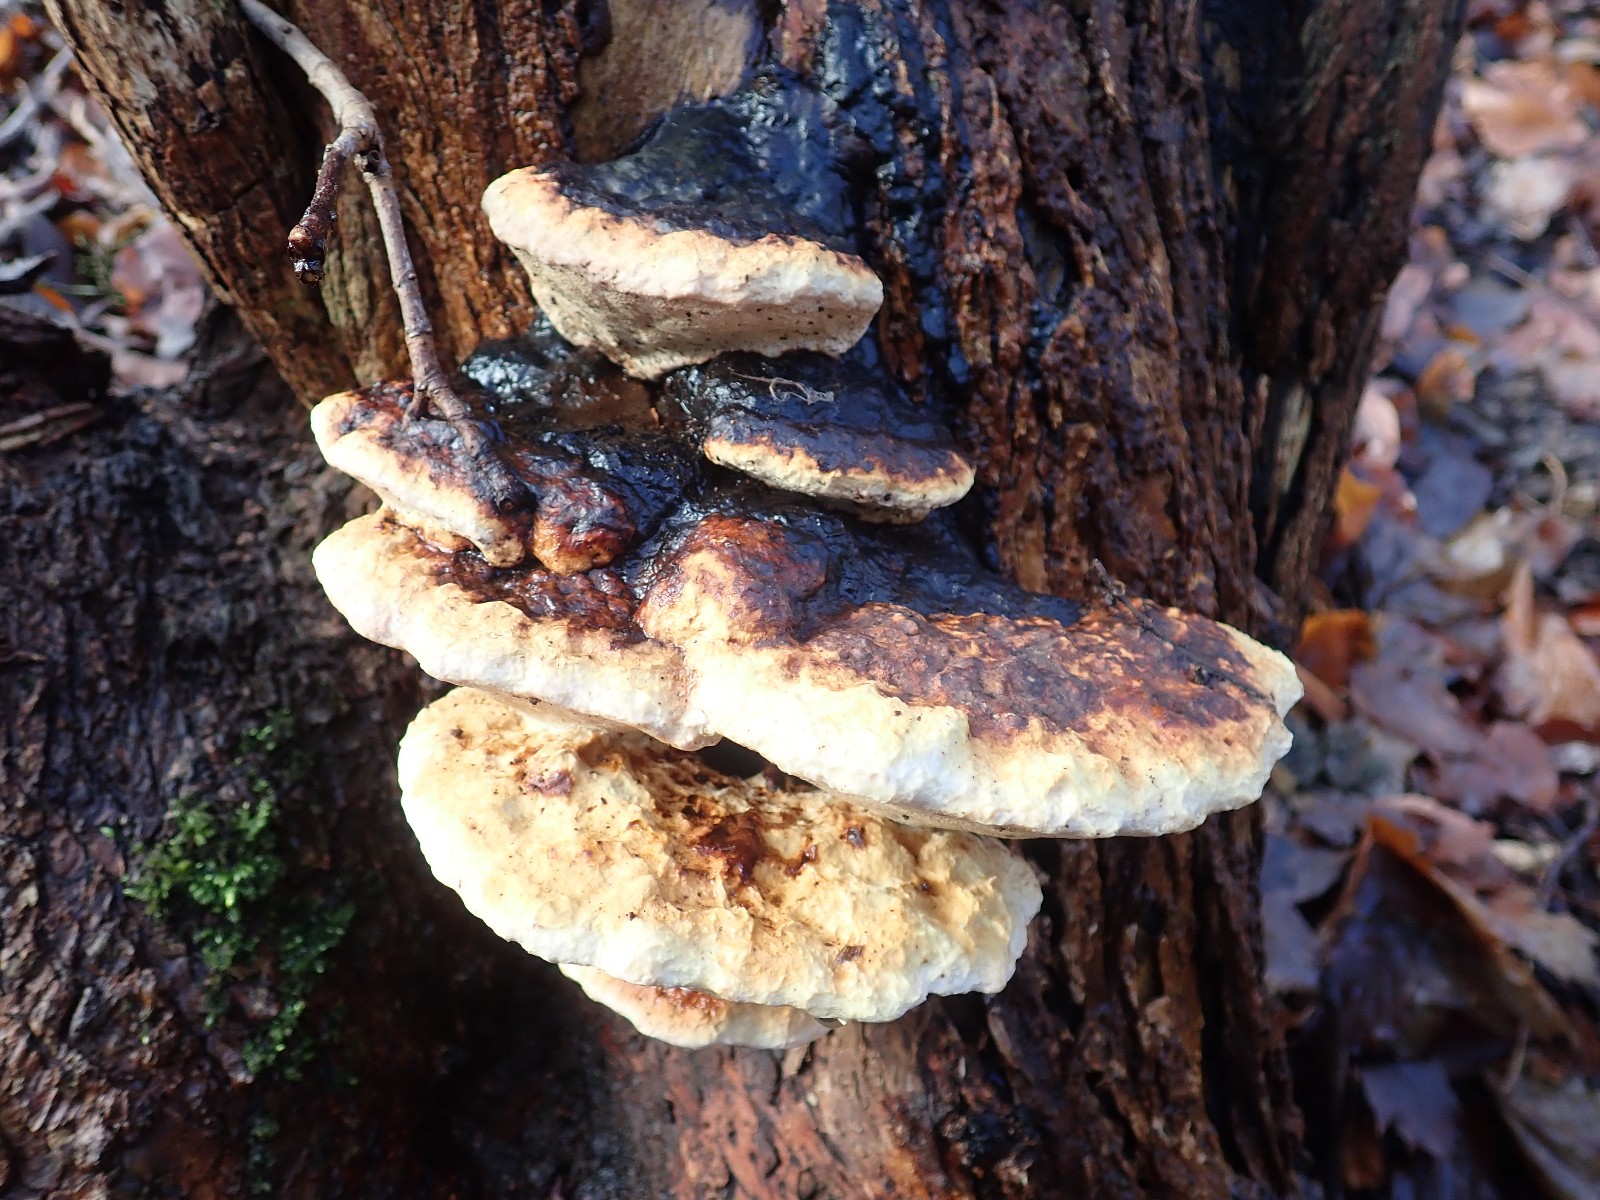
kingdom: Fungi
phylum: Basidiomycota
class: Agaricomycetes
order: Polyporales
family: Fomitopsidaceae
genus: Fomitopsis
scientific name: Fomitopsis pinicola
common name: randbæltet hovporesvamp
